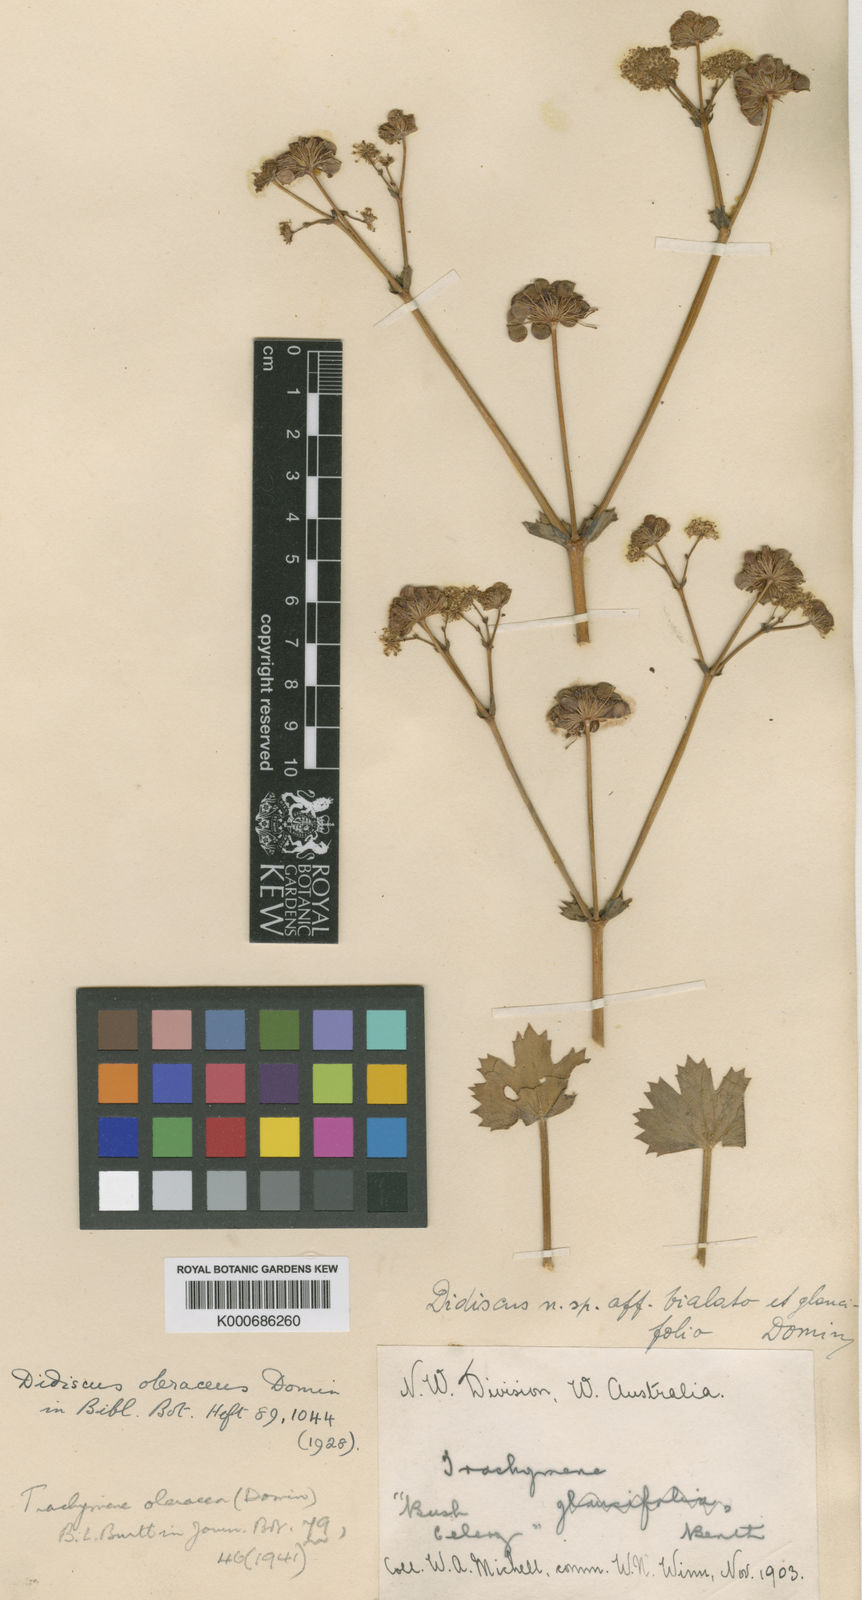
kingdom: Plantae
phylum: Tracheophyta
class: Magnoliopsida
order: Apiales
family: Araliaceae
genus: Trachymene
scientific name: Trachymene oleracea
